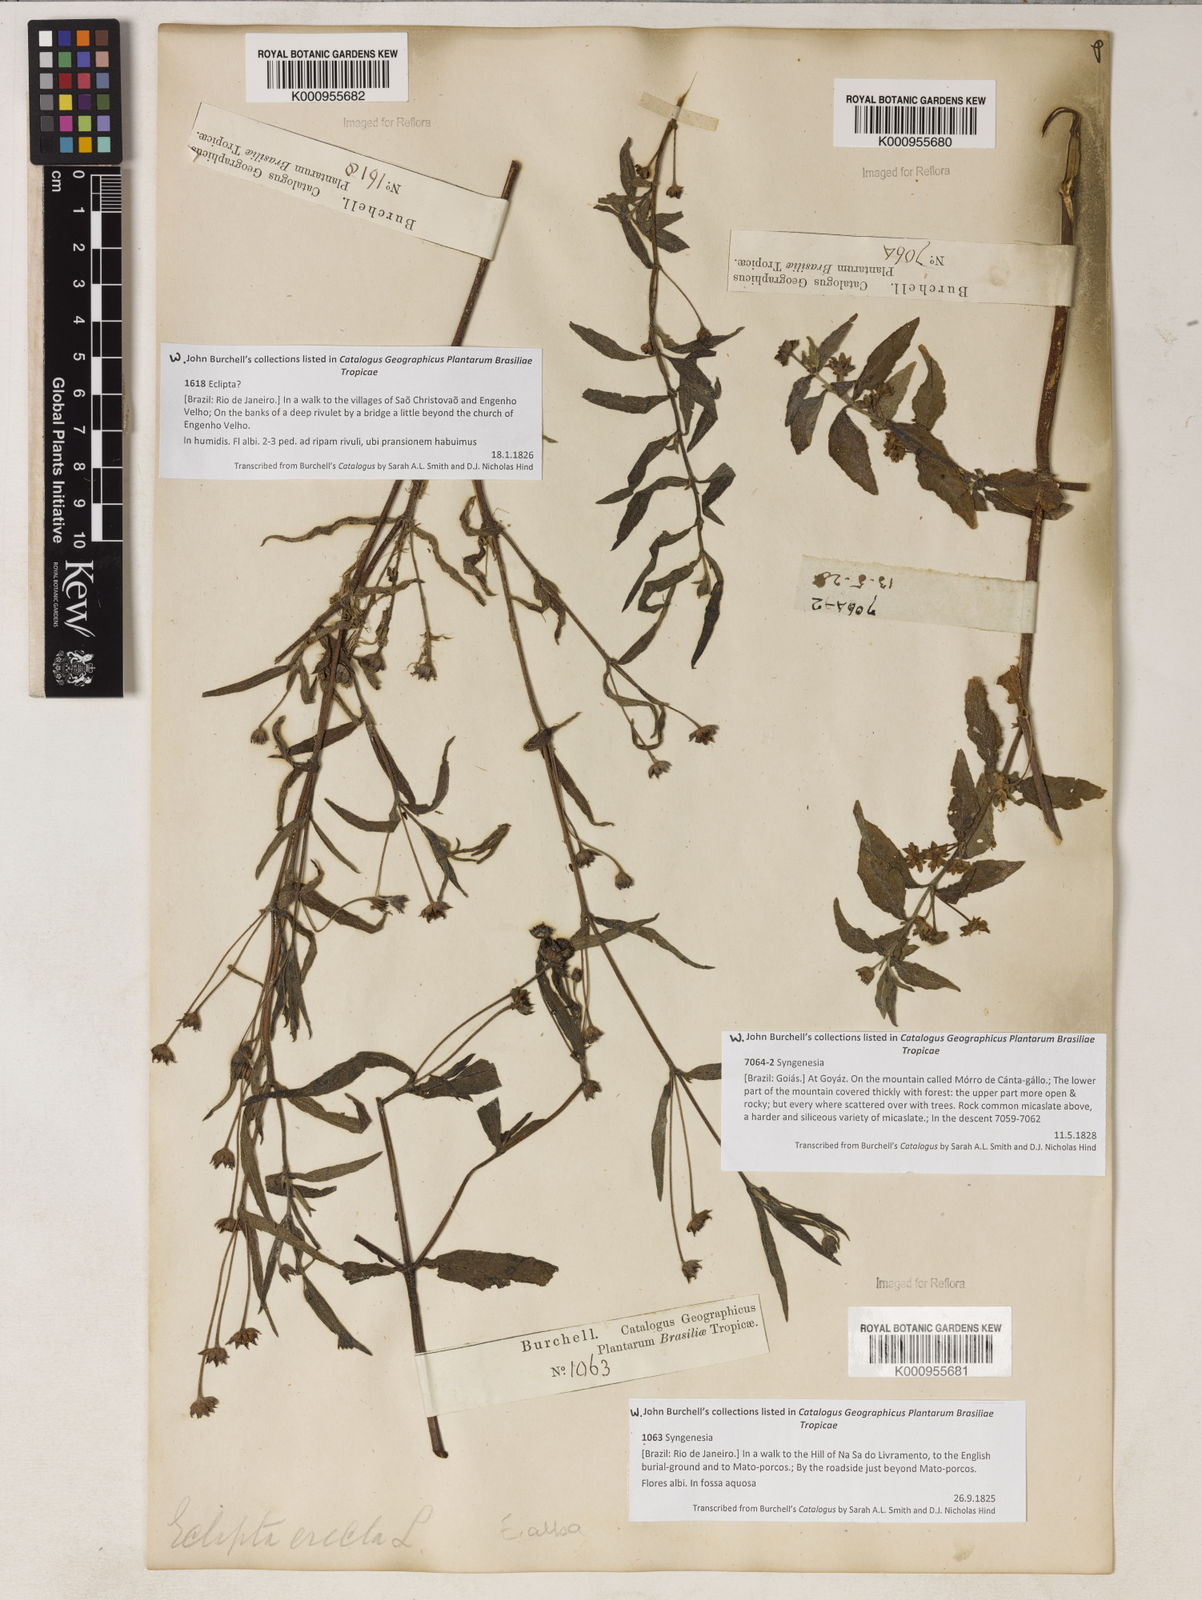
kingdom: Plantae
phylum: Tracheophyta
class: Magnoliopsida
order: Asterales
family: Asteraceae
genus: Eclipta
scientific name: Eclipta prostrata
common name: False daisy
